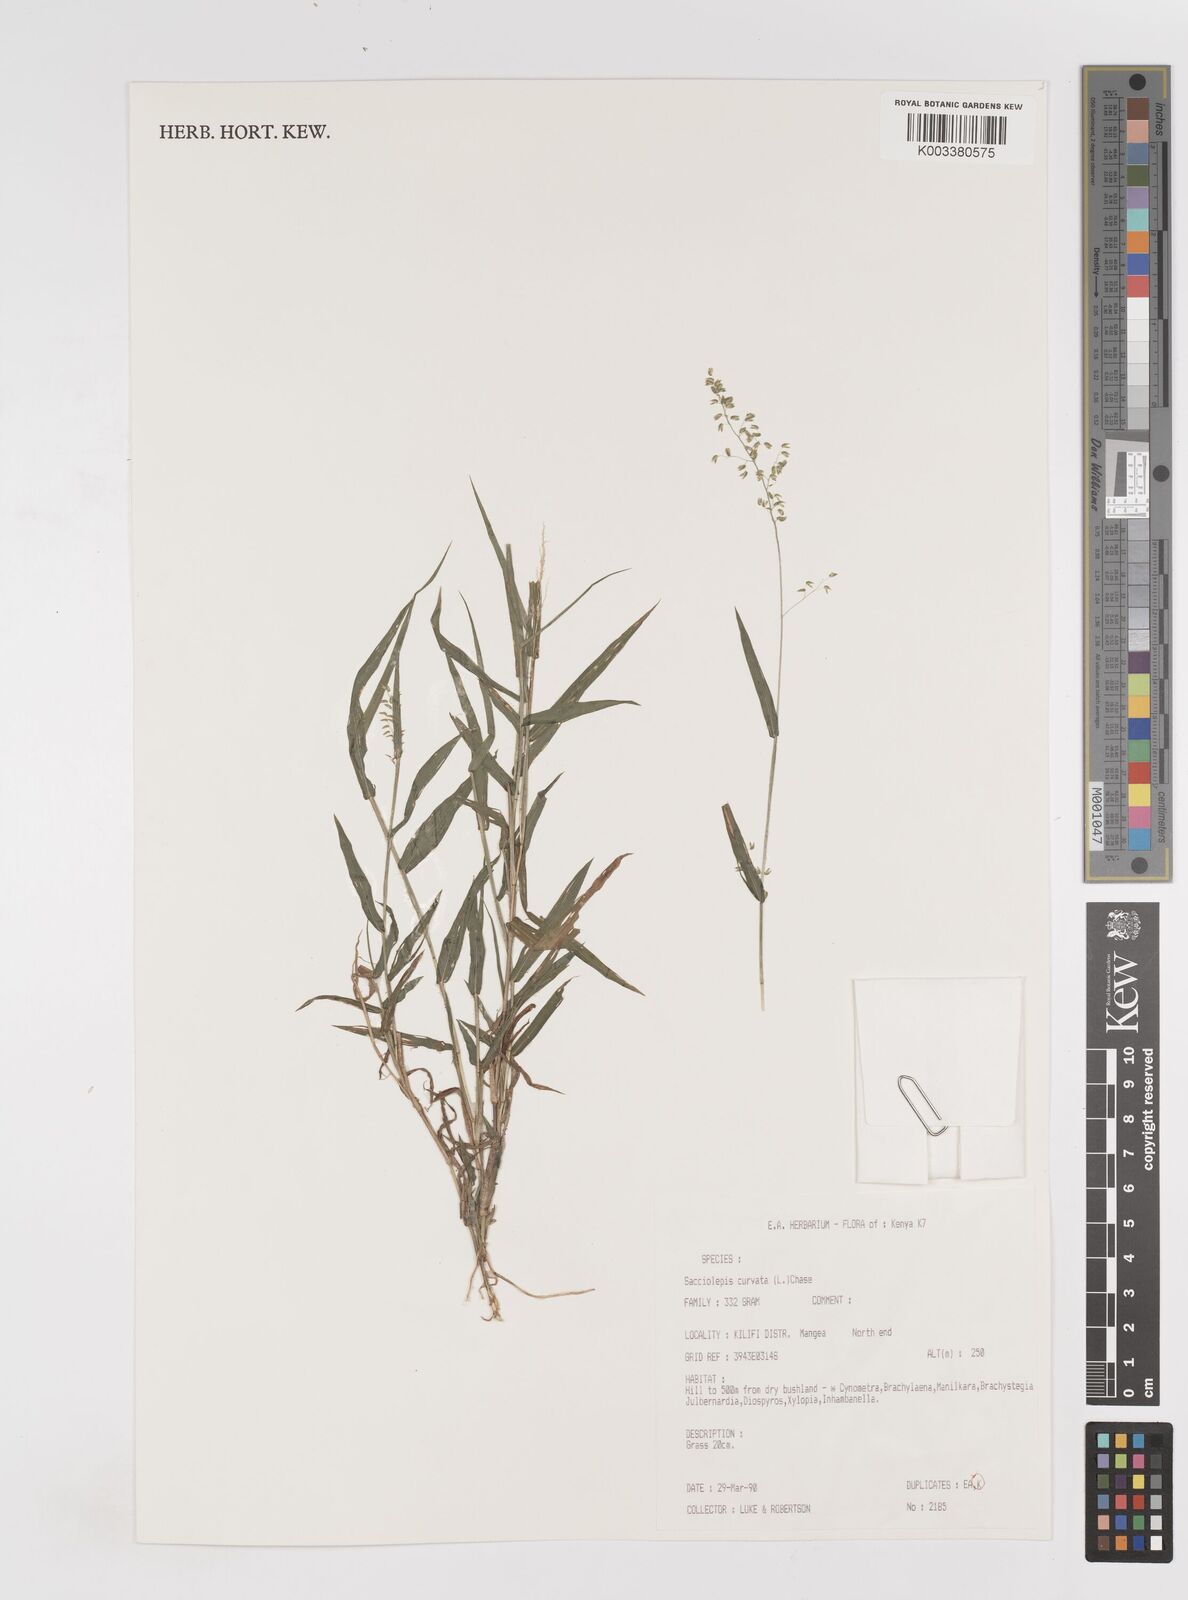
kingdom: Plantae
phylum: Tracheophyta
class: Liliopsida
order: Poales
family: Poaceae
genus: Sacciolepis
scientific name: Sacciolepis curvata
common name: Forest hood grass
